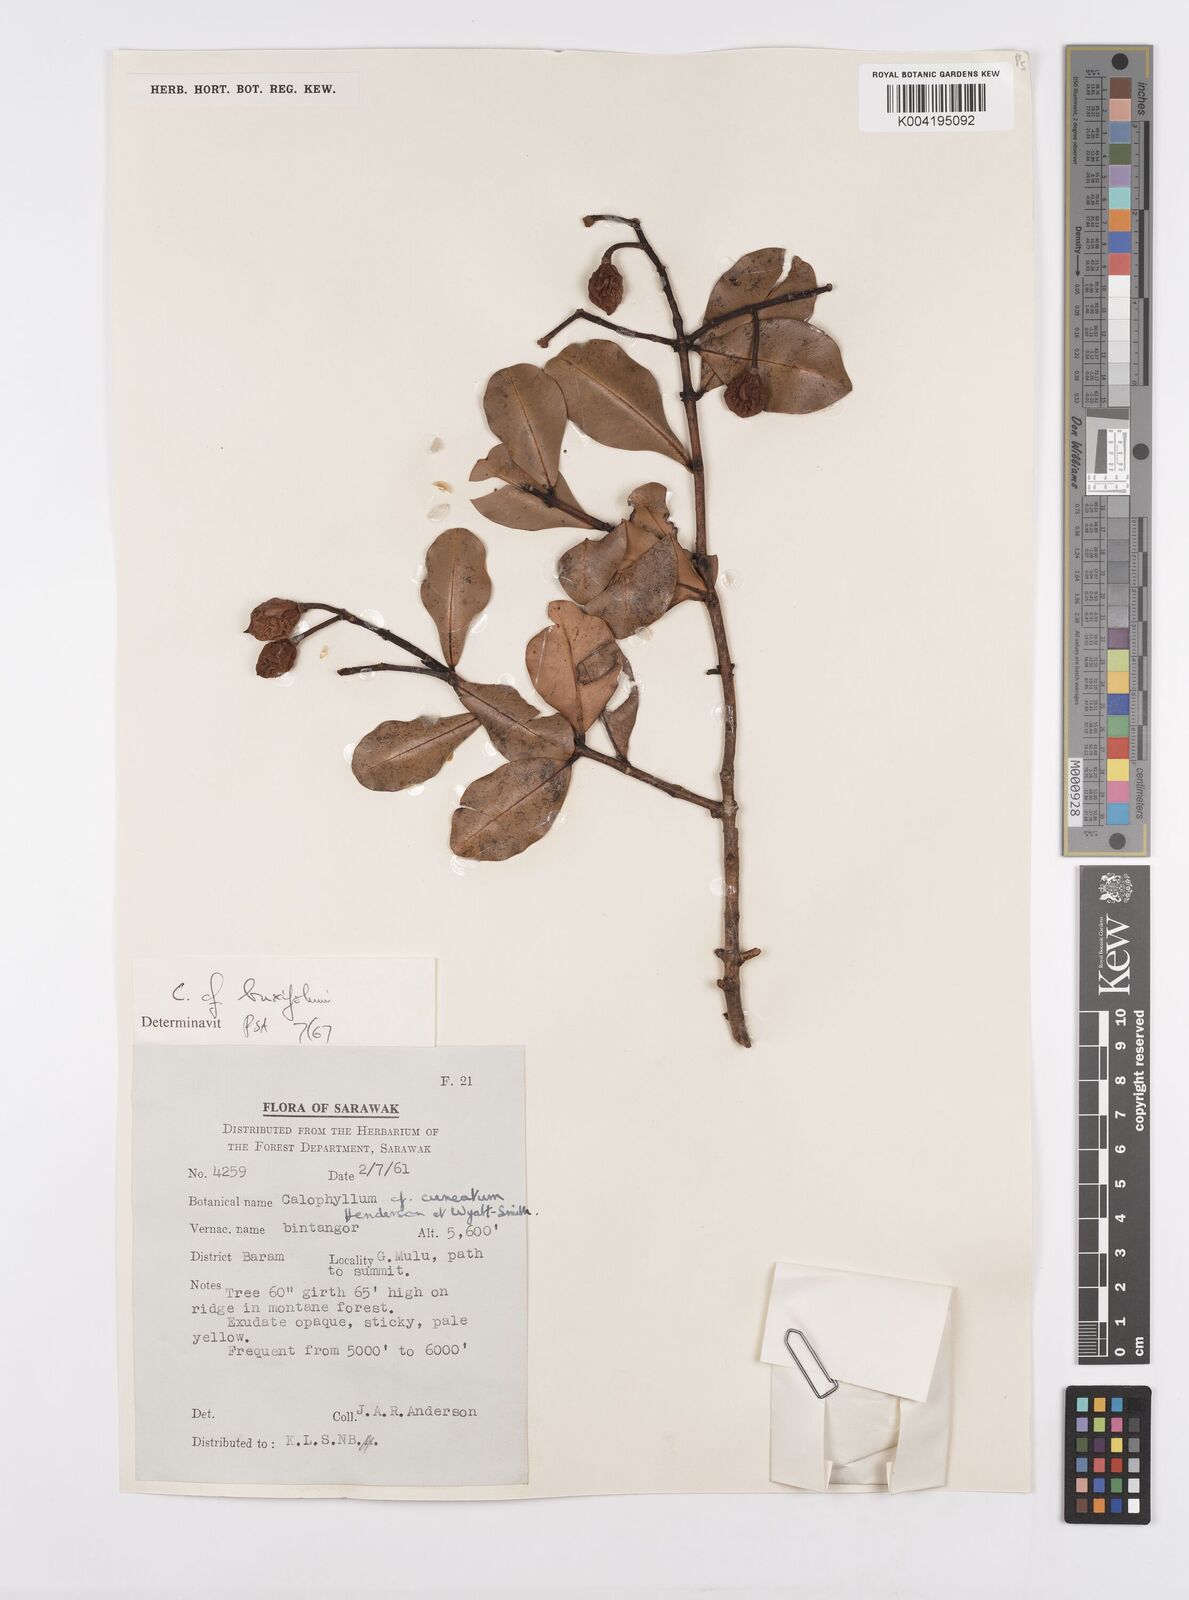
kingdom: Plantae
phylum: Tracheophyta
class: Magnoliopsida
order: Malpighiales
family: Calophyllaceae
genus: Calophyllum
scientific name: Calophyllum garcinioides
